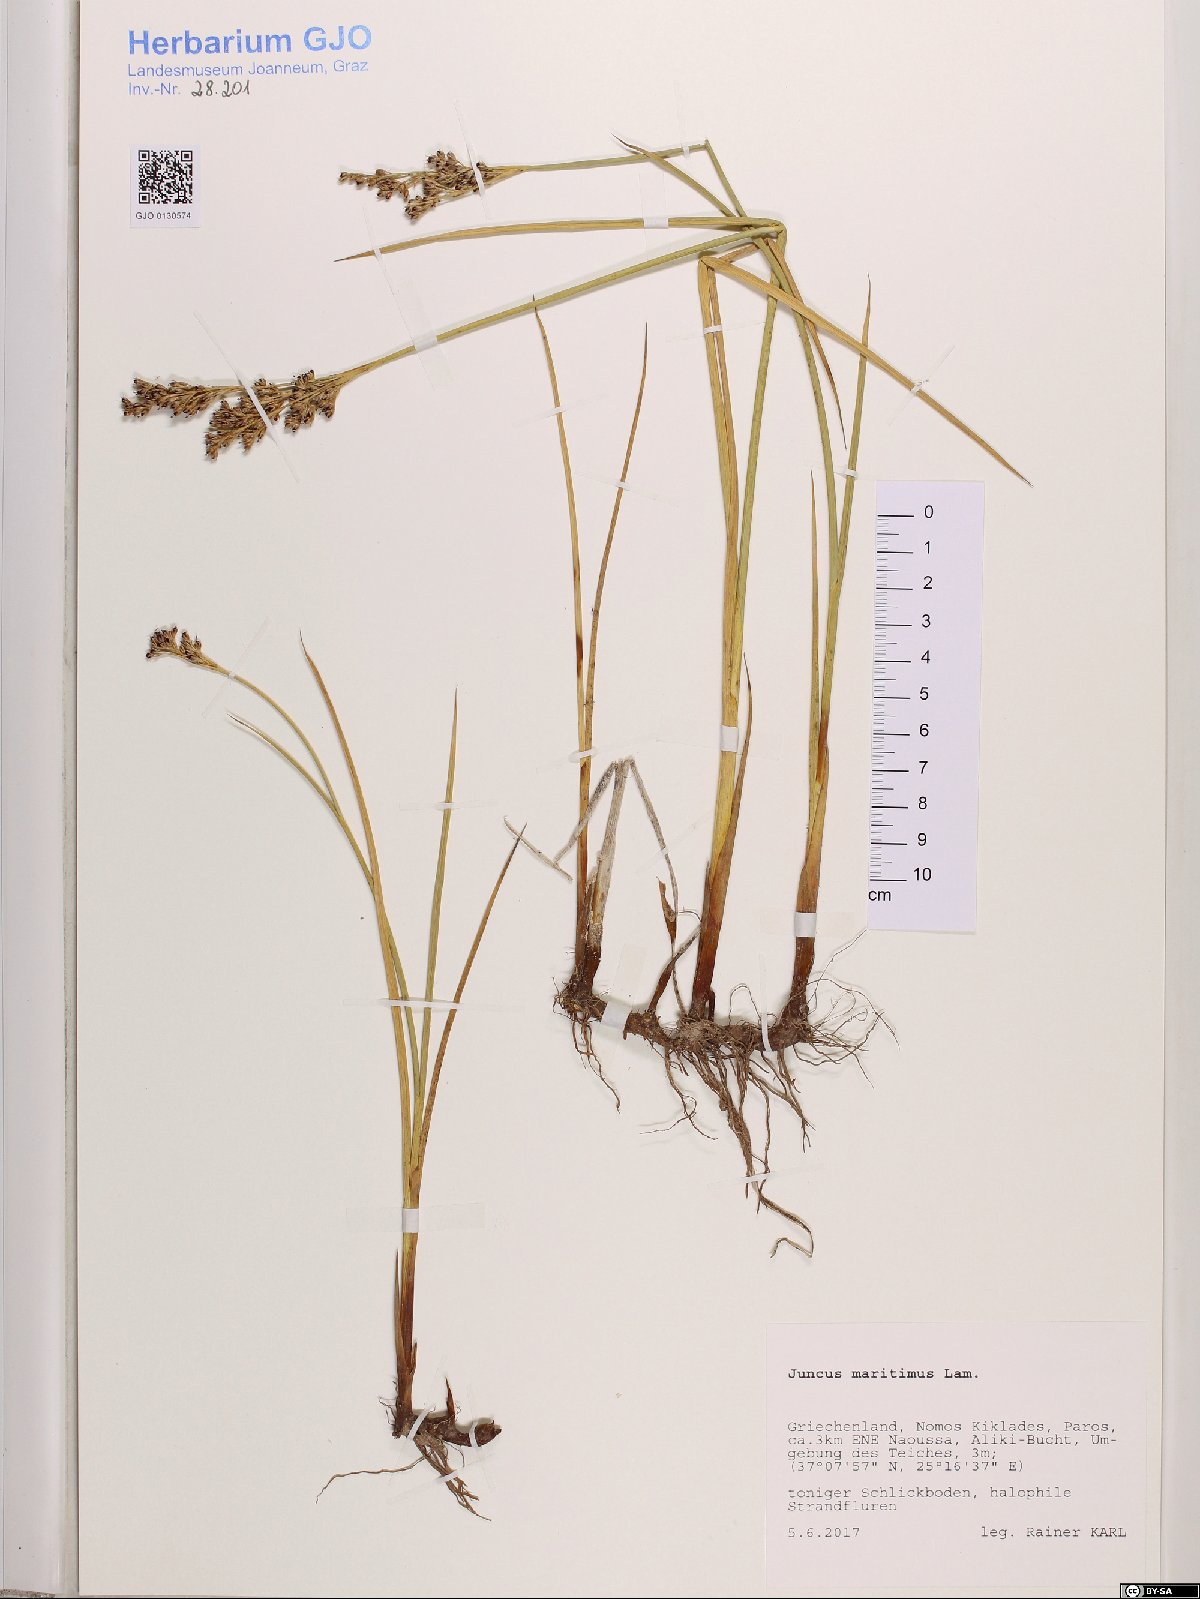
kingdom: Plantae
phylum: Tracheophyta
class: Liliopsida
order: Poales
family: Juncaceae
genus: Juncus
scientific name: Juncus maritimus
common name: Sea rush
